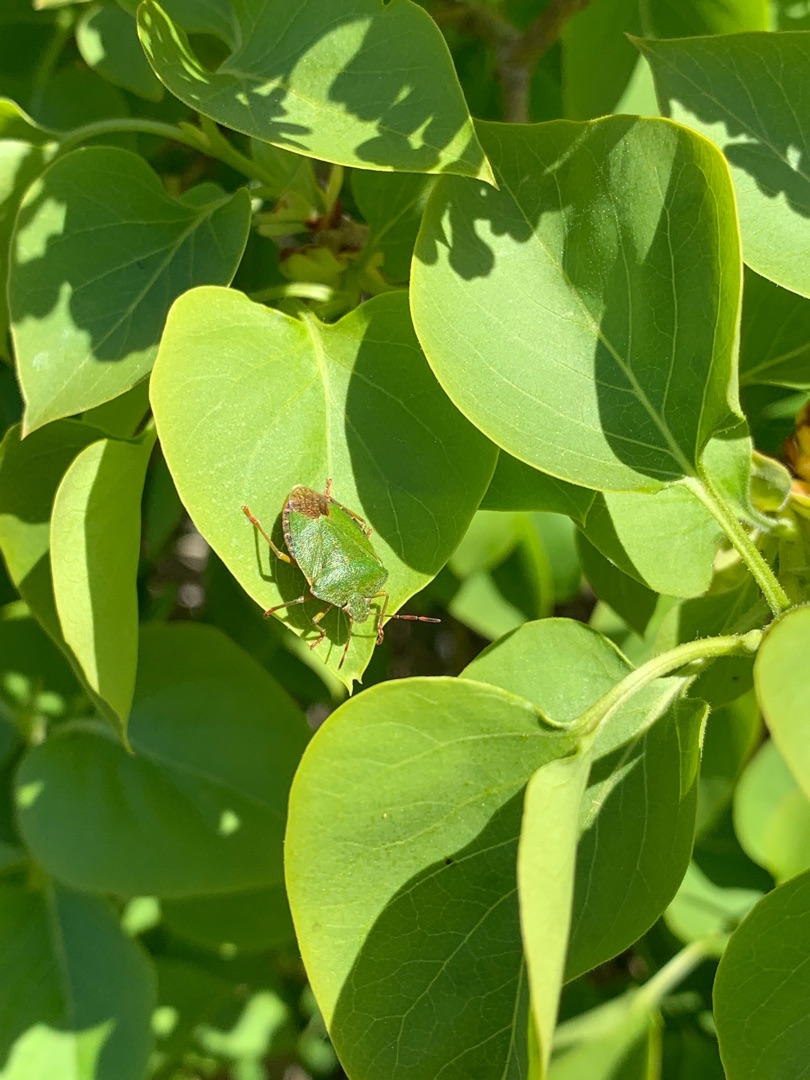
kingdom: Animalia
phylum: Arthropoda
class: Insecta
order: Hemiptera
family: Pentatomidae
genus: Palomena
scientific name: Palomena prasina
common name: Grøn bredtæge
